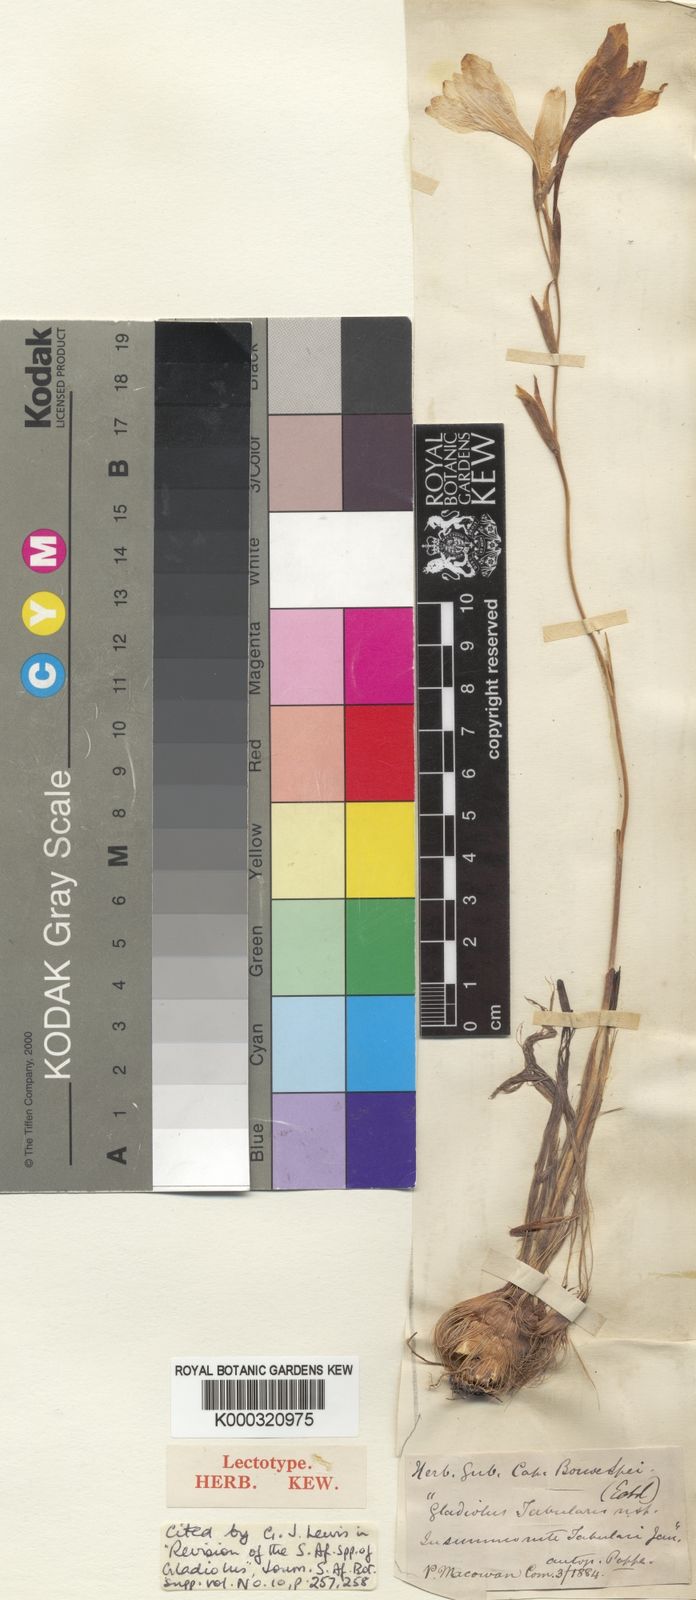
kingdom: Plantae
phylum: Tracheophyta
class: Liliopsida
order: Asparagales
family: Iridaceae
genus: Gladiolus
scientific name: Gladiolus monticola
